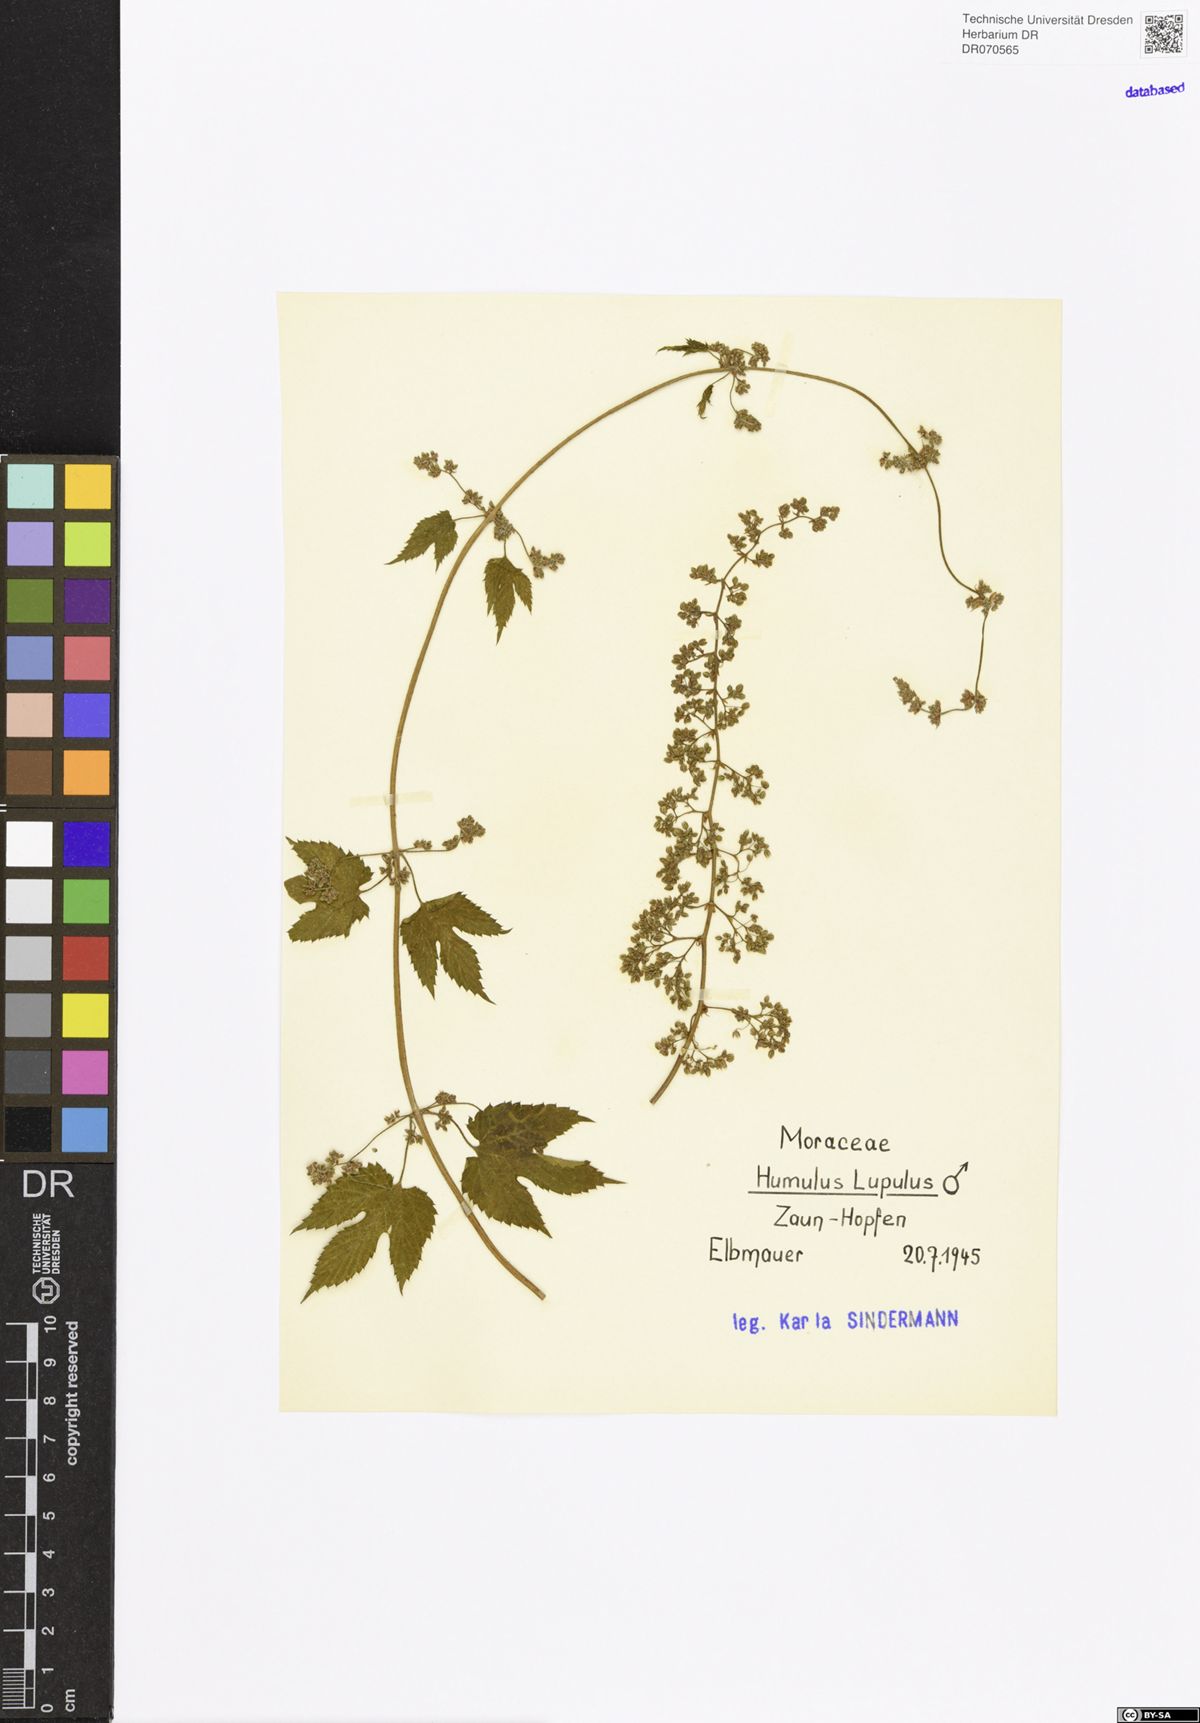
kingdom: Plantae
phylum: Tracheophyta
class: Magnoliopsida
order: Rosales
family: Cannabaceae
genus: Humulus
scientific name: Humulus lupulus
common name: Hop
